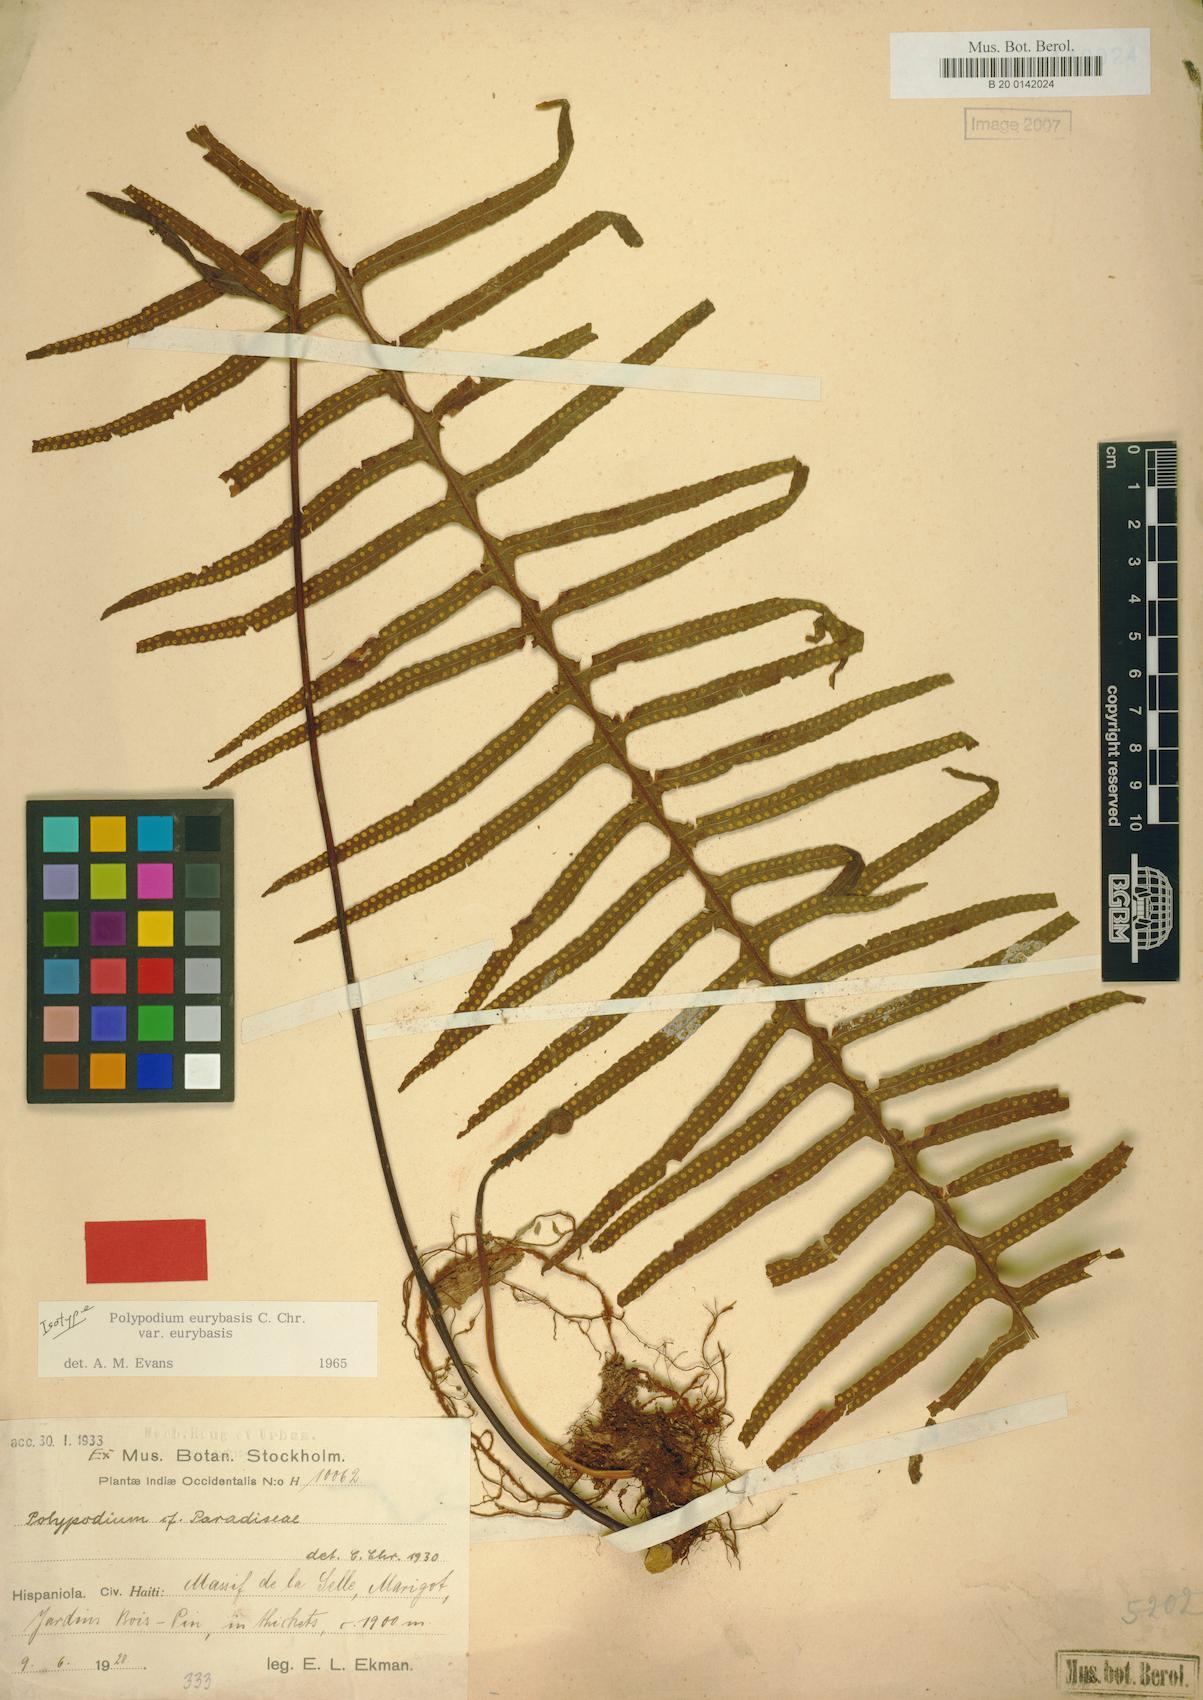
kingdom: Plantae
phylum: Tracheophyta
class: Polypodiopsida
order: Polypodiales
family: Polypodiaceae
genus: Pecluma
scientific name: Pecluma eurybasis
